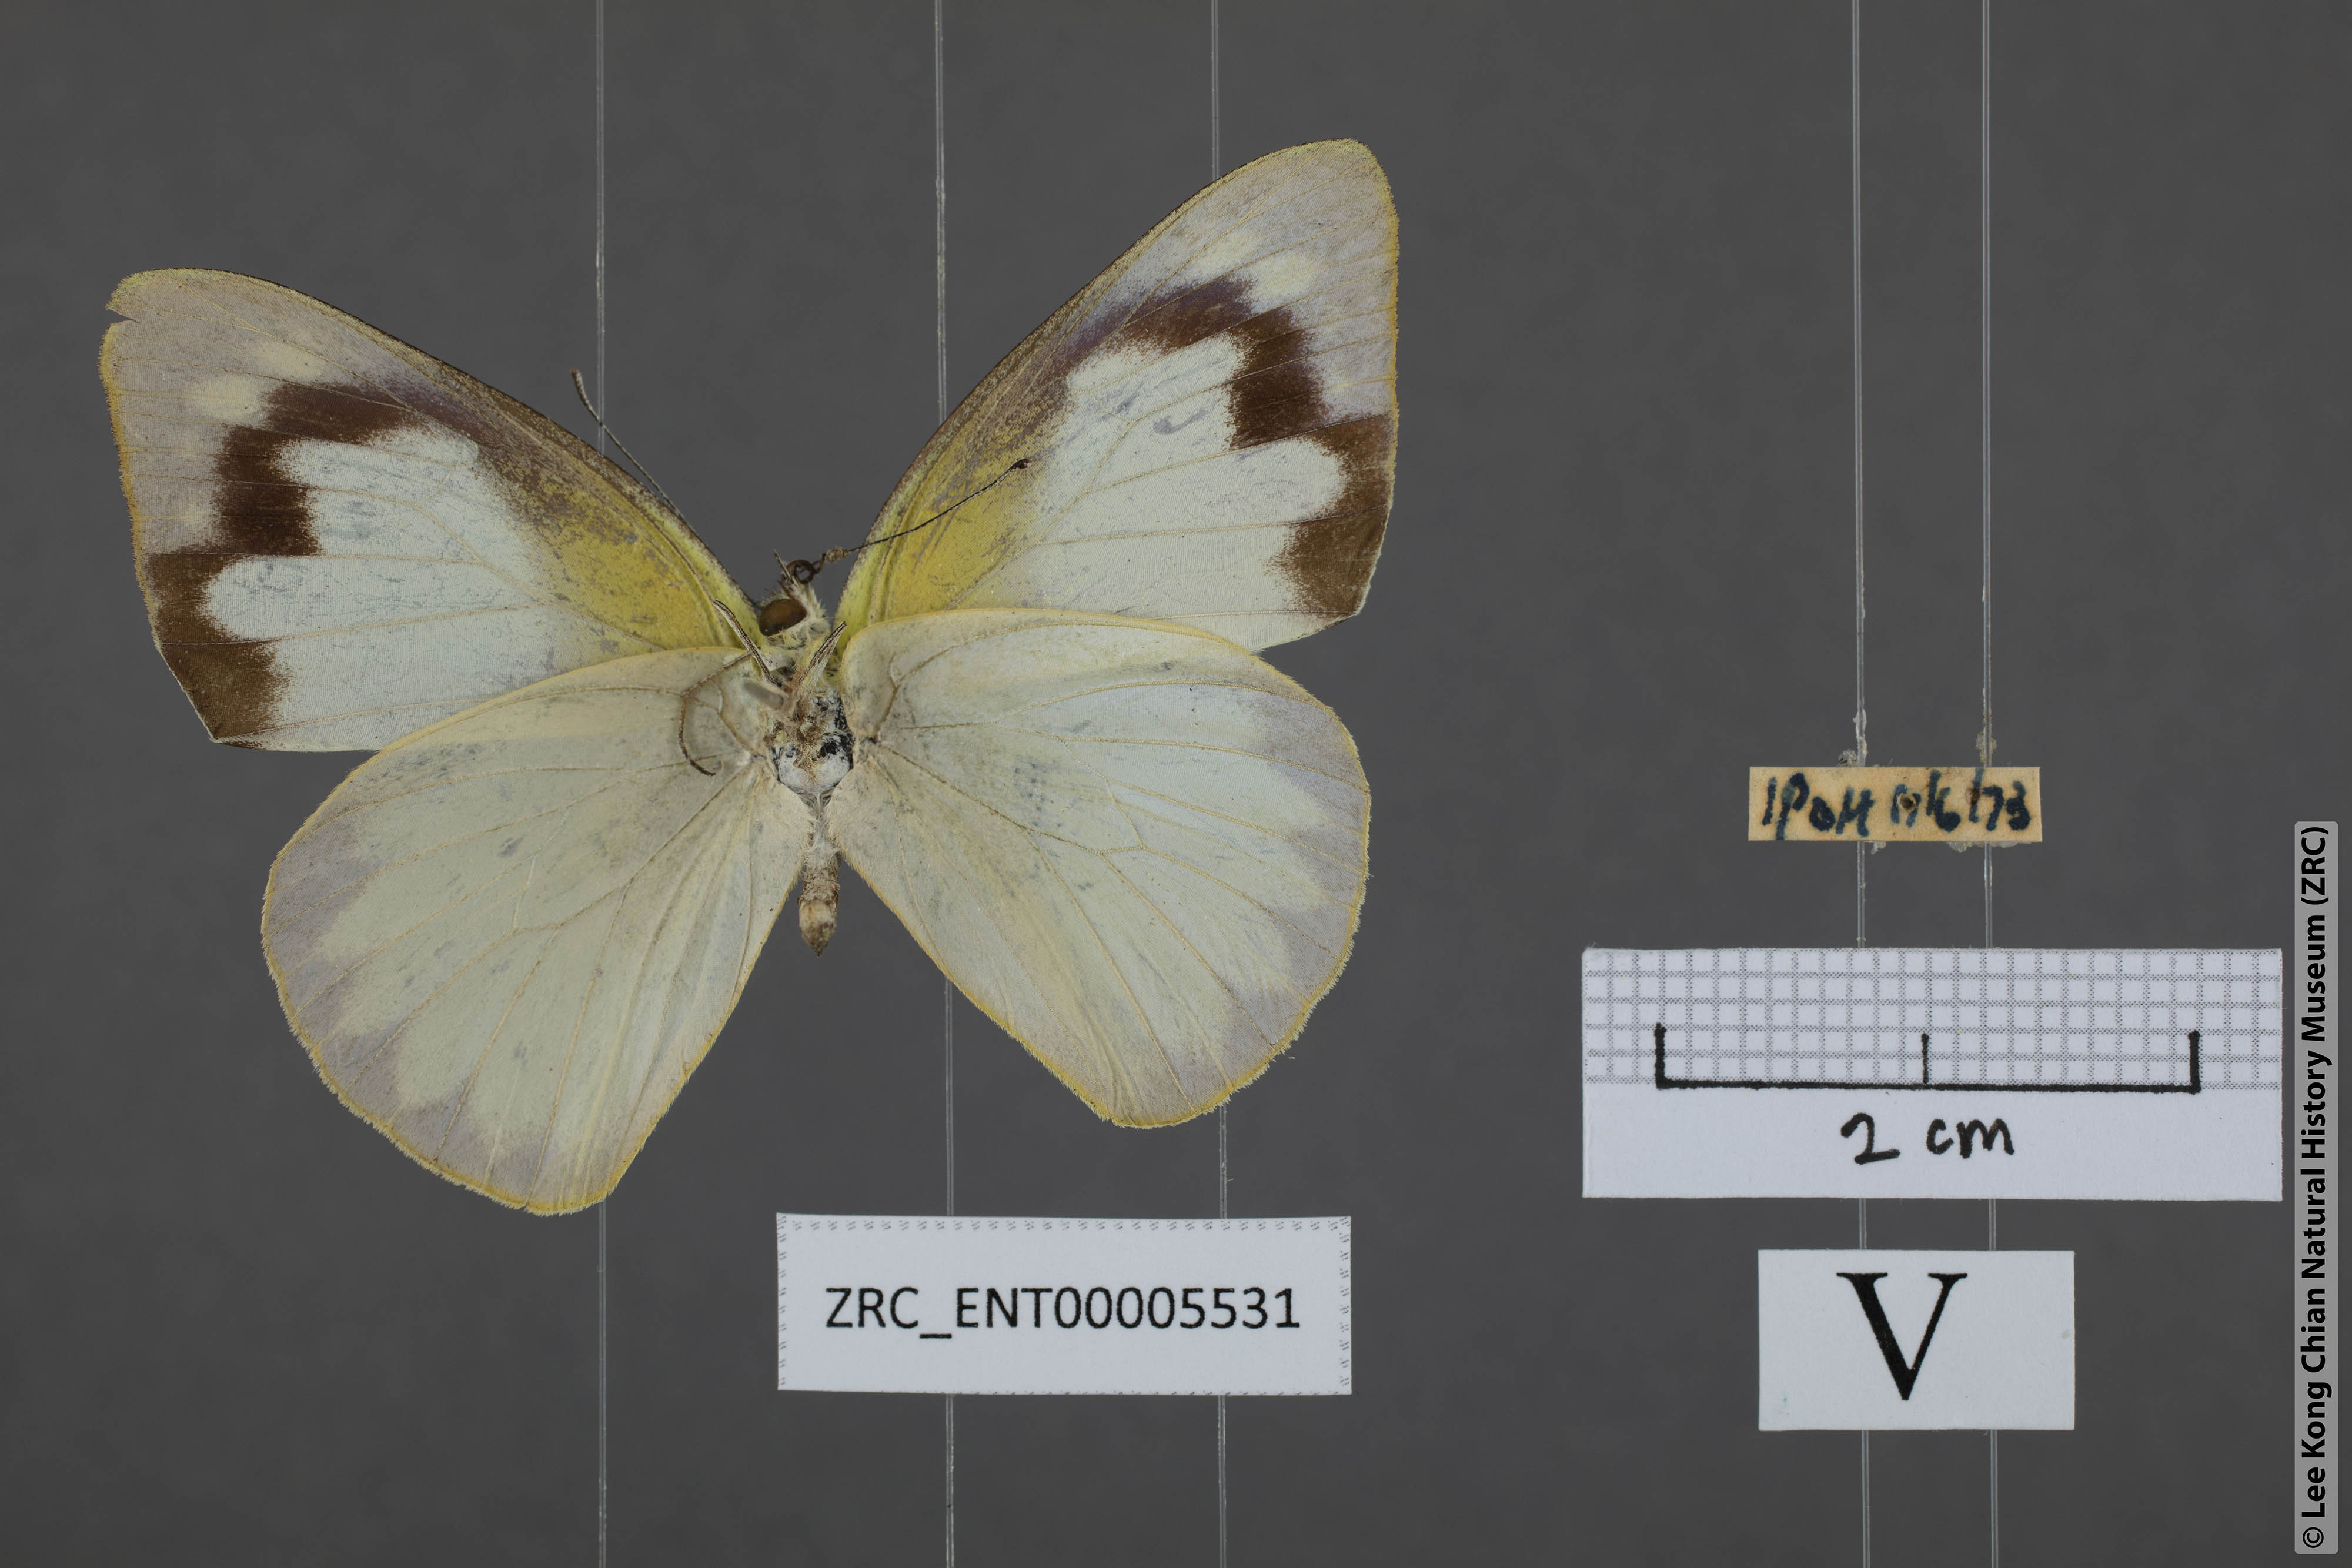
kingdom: Animalia
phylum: Arthropoda
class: Insecta
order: Lepidoptera
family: Pieridae
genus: Appias
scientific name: Appias albina
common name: Common albatross
